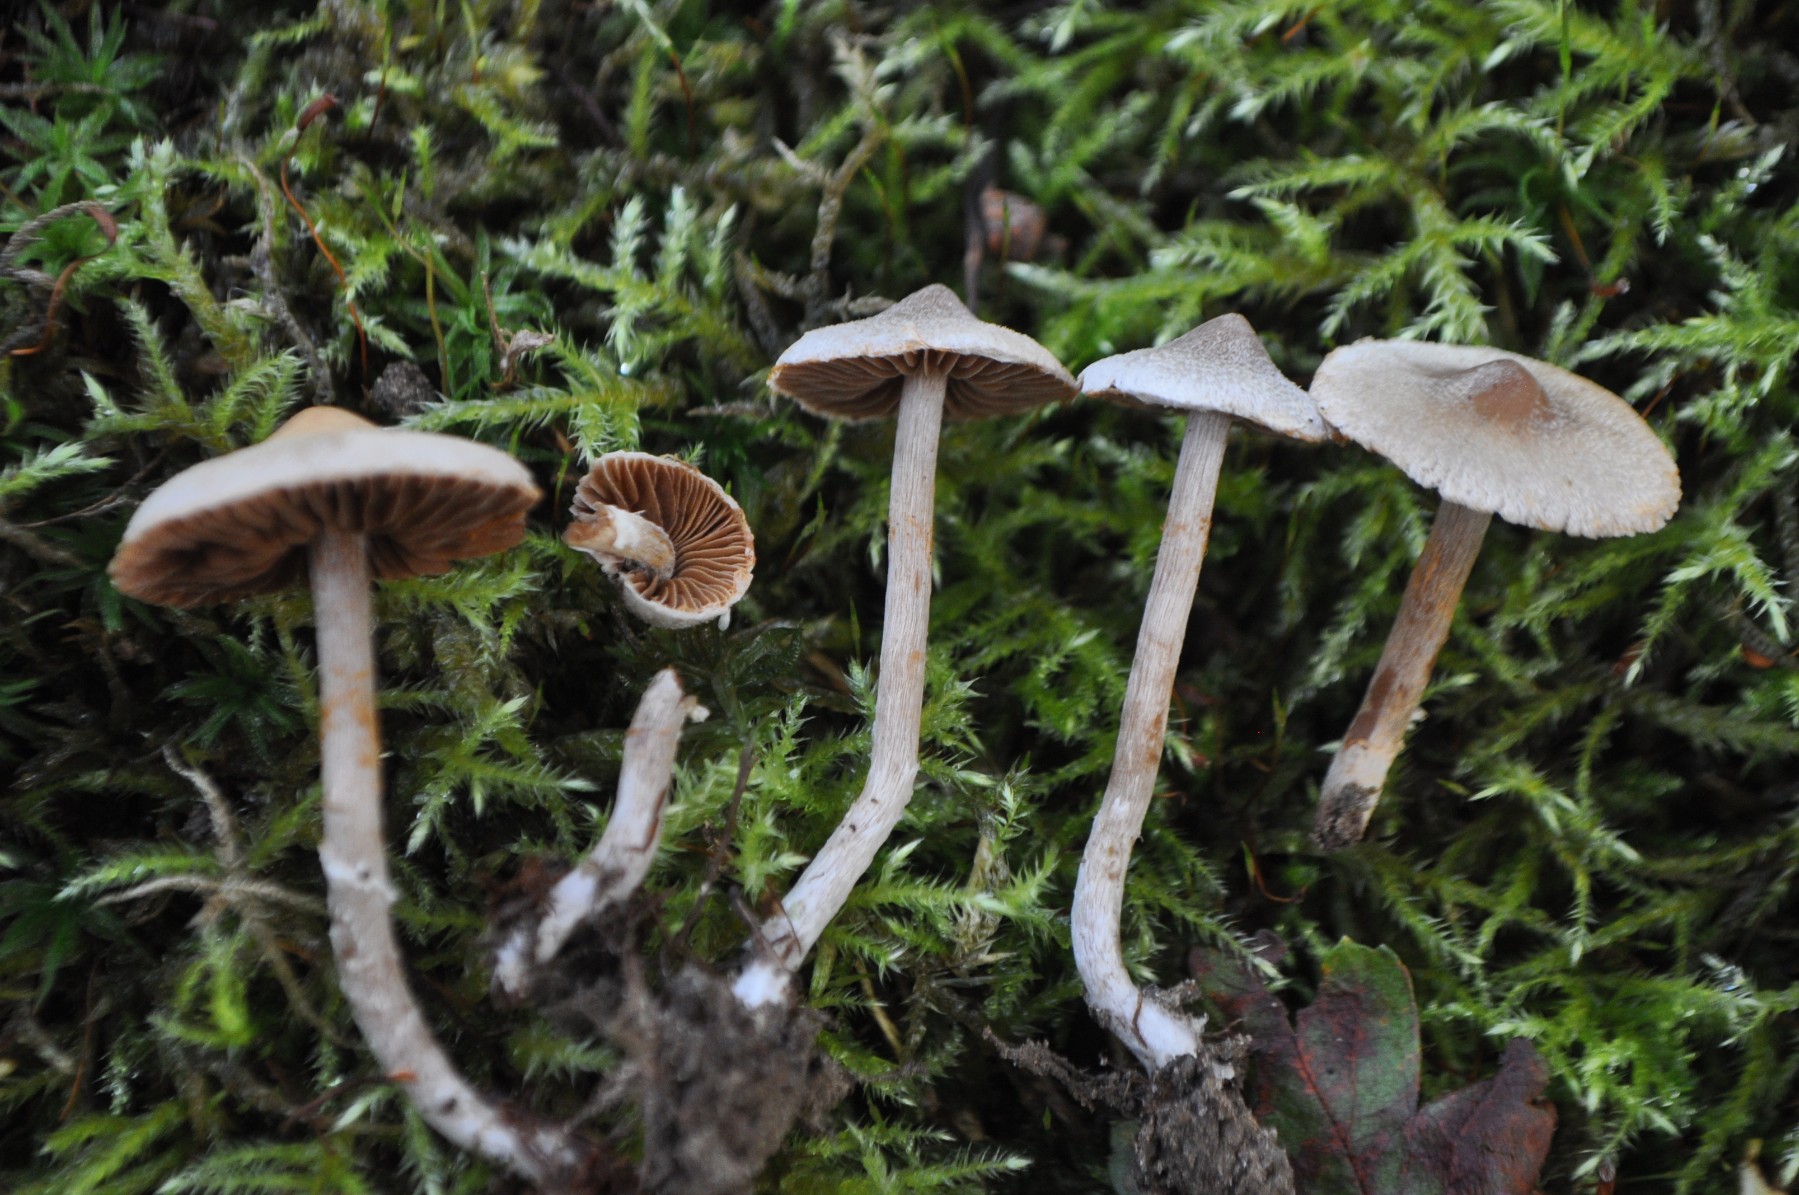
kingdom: Fungi
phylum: Basidiomycota
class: Agaricomycetes
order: Agaricales
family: Cortinariaceae
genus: Cortinarius
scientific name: Cortinarius
